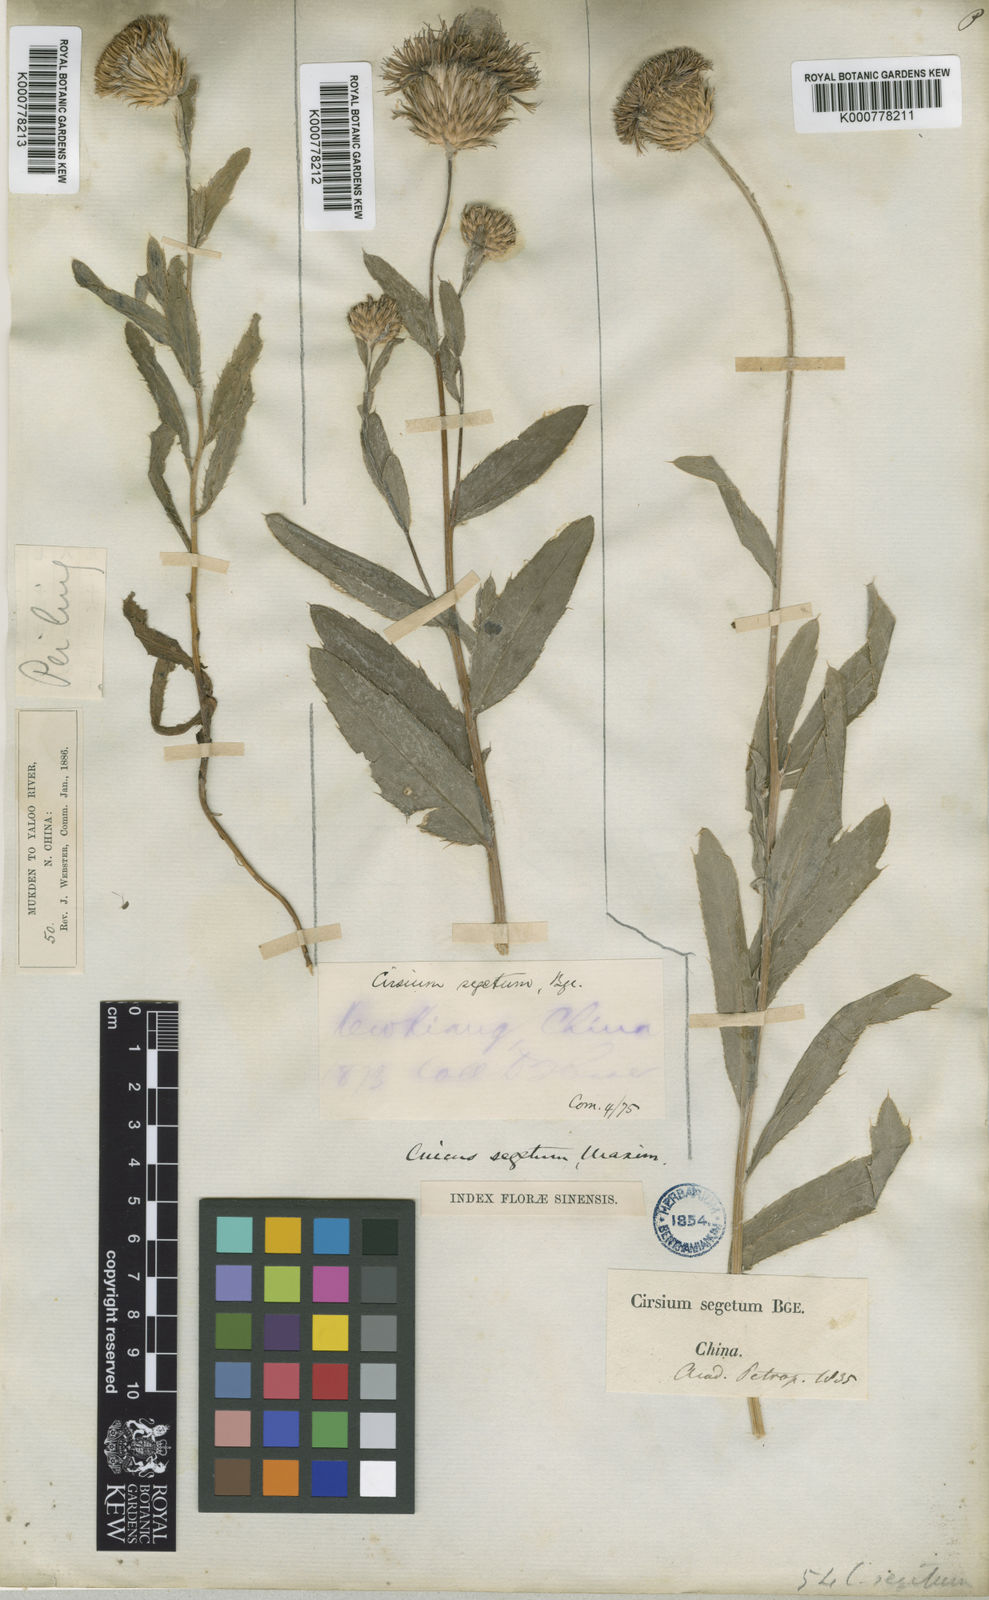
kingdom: Plantae
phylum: Tracheophyta
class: Magnoliopsida
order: Asterales
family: Asteraceae
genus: Cirsium
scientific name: Cirsium arvense
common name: Creeping thistle
